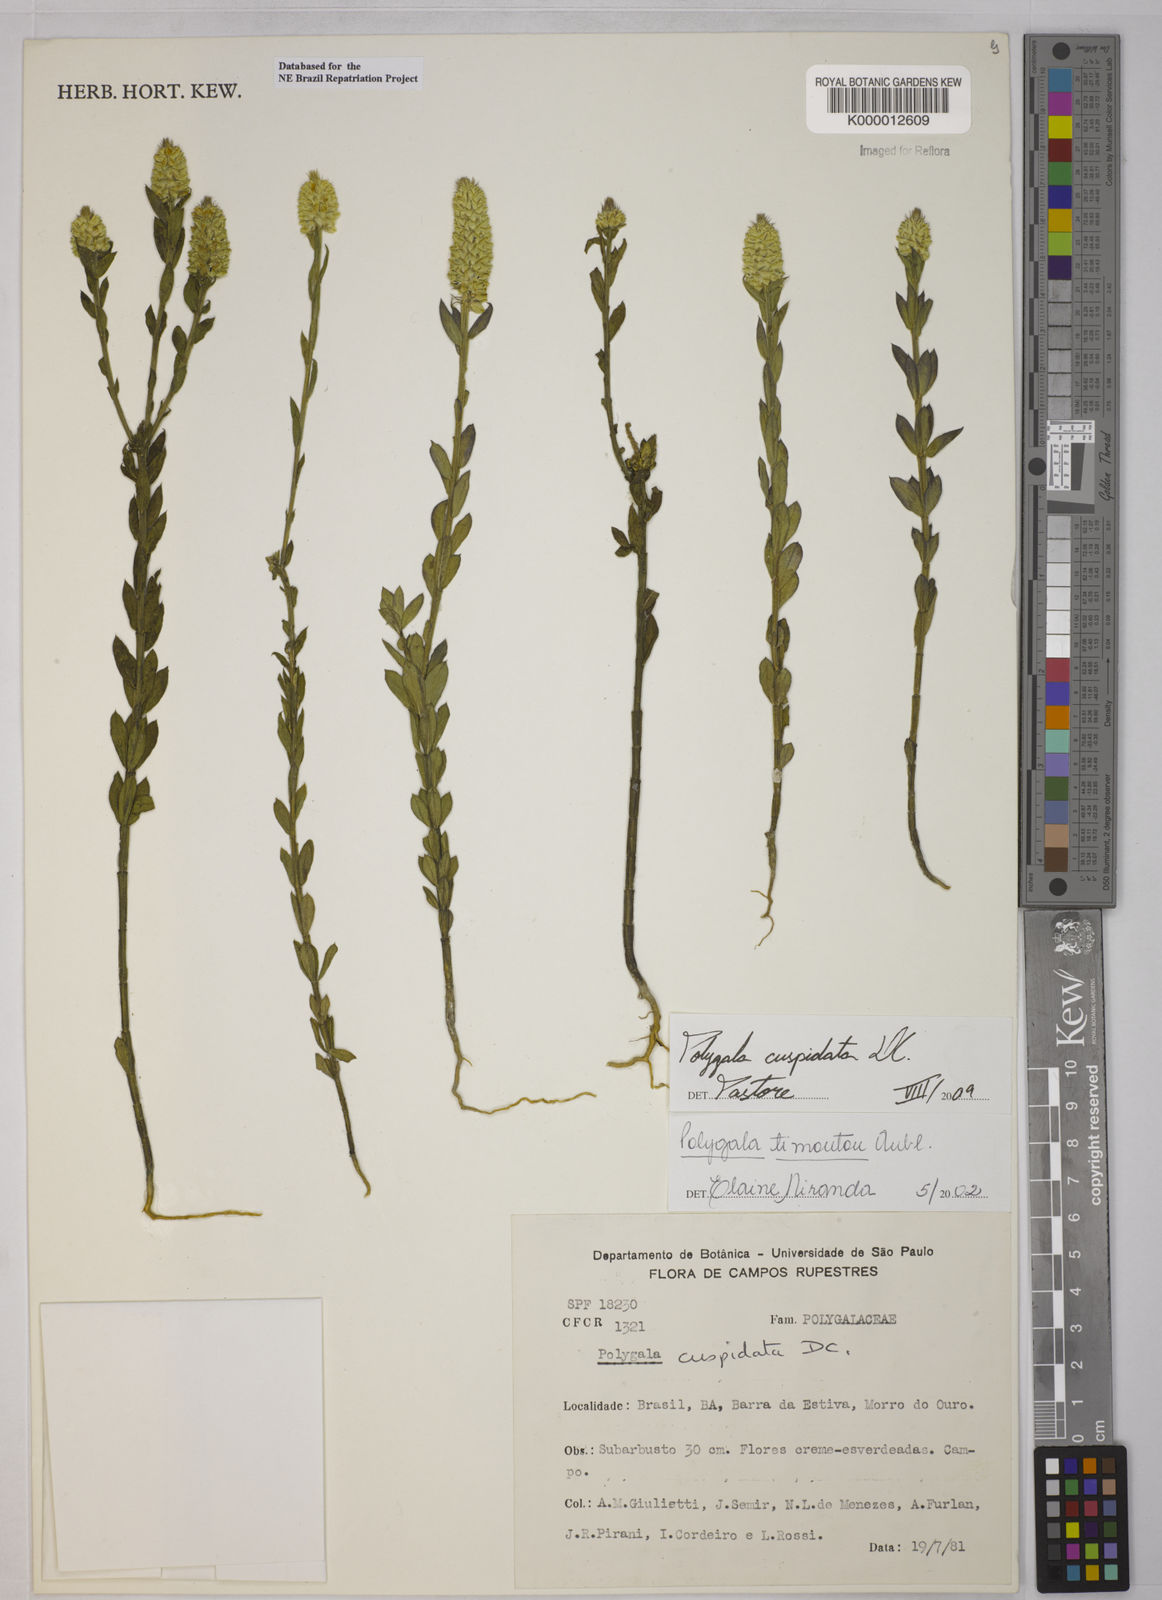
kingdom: Plantae
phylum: Tracheophyta
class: Magnoliopsida
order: Fabales
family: Polygalaceae
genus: Polygala
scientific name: Polygala timoutou
